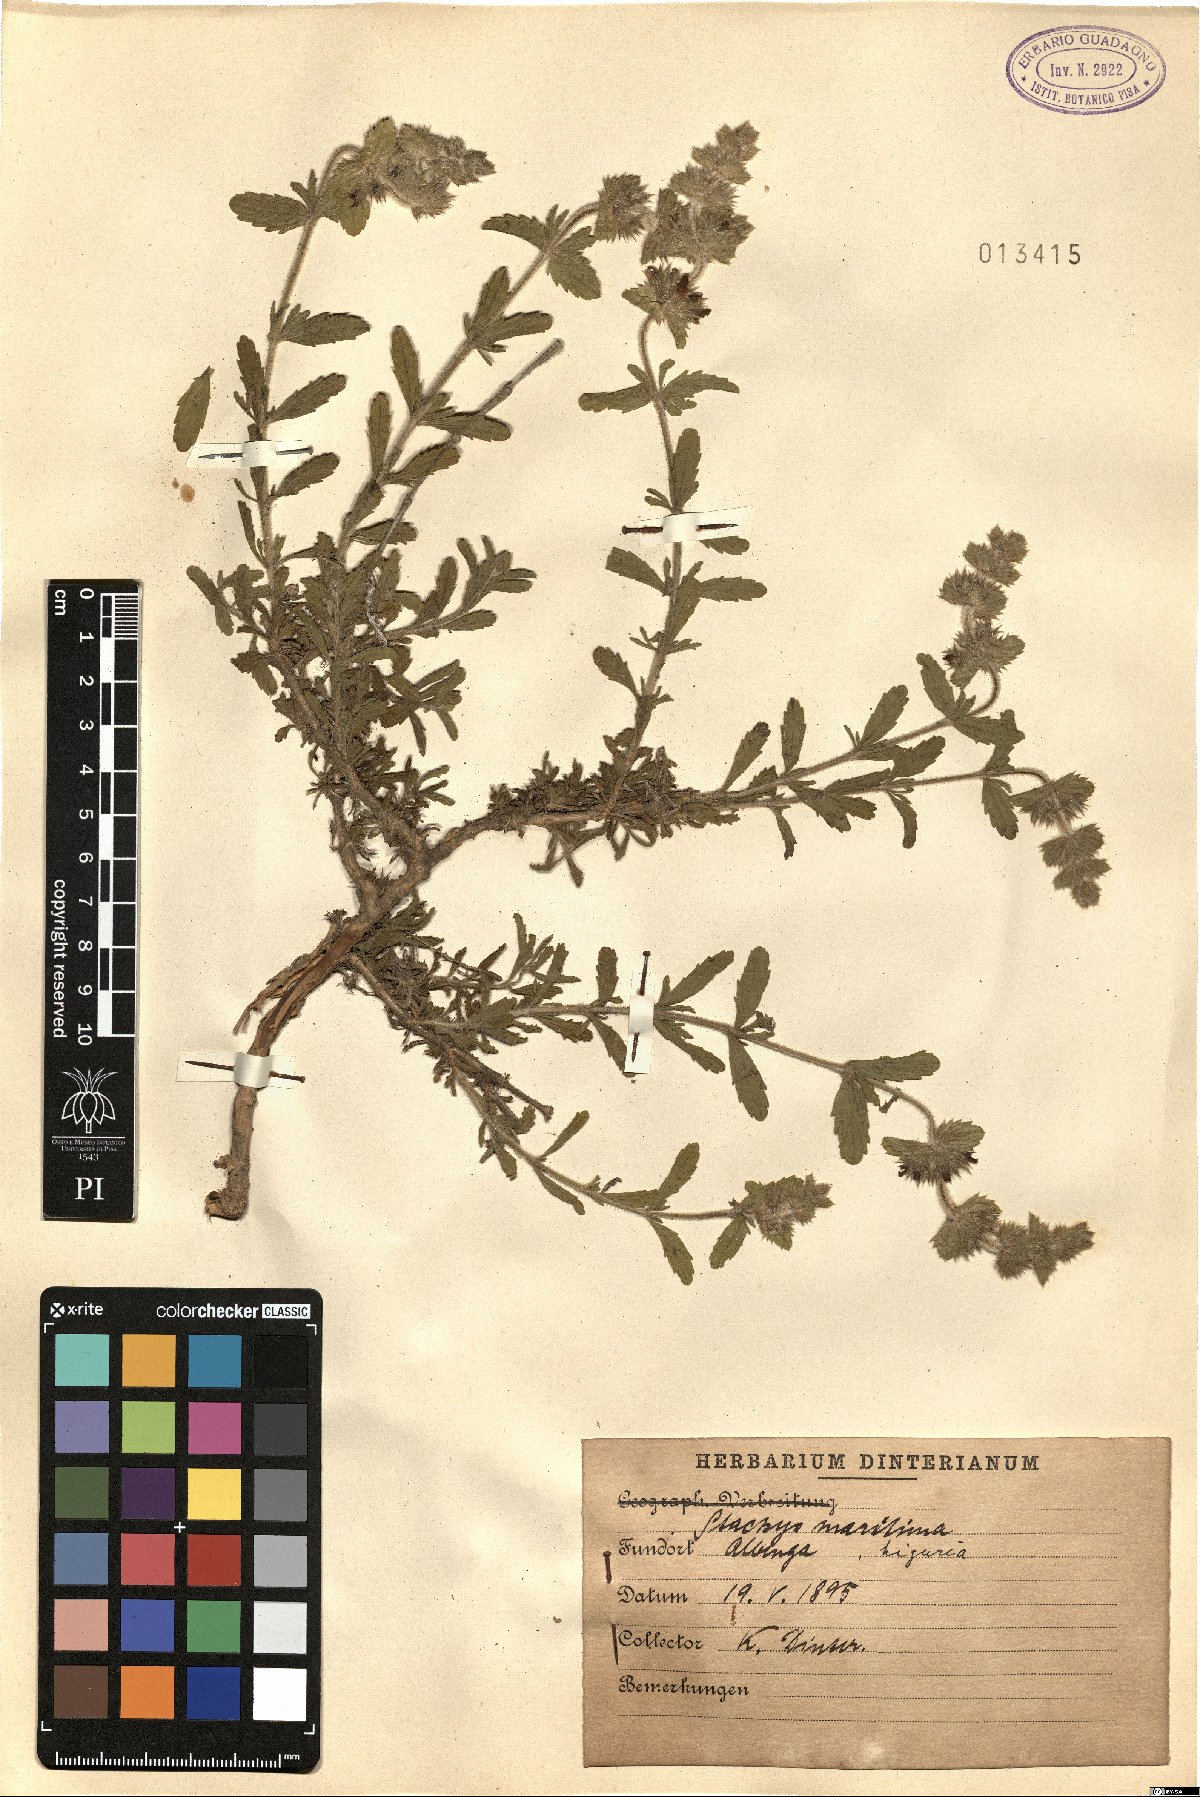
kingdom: Plantae
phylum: Tracheophyta
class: Magnoliopsida
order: Lamiales
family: Lamiaceae
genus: Stachys
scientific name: Stachys maritima
